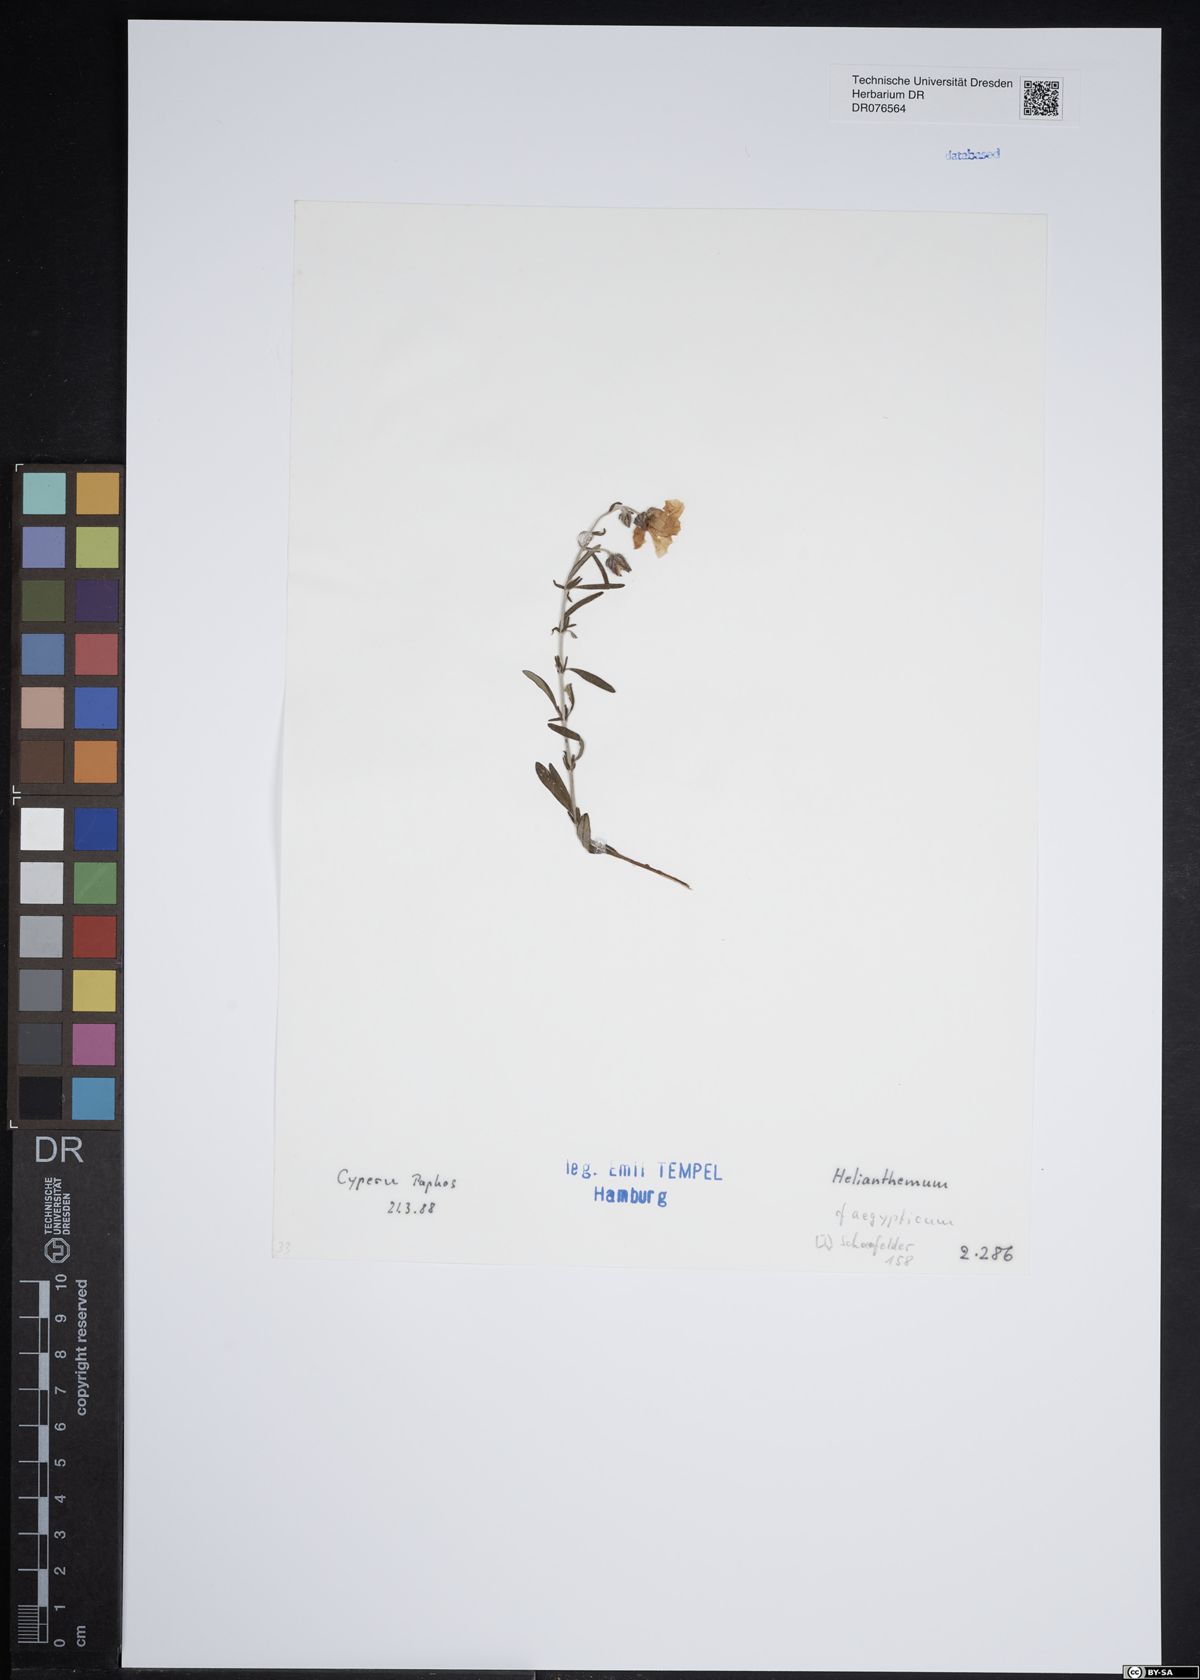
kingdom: Plantae
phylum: Tracheophyta
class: Magnoliopsida
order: Malvales
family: Cistaceae
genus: Helianthemum
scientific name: Helianthemum aegyptiacum
